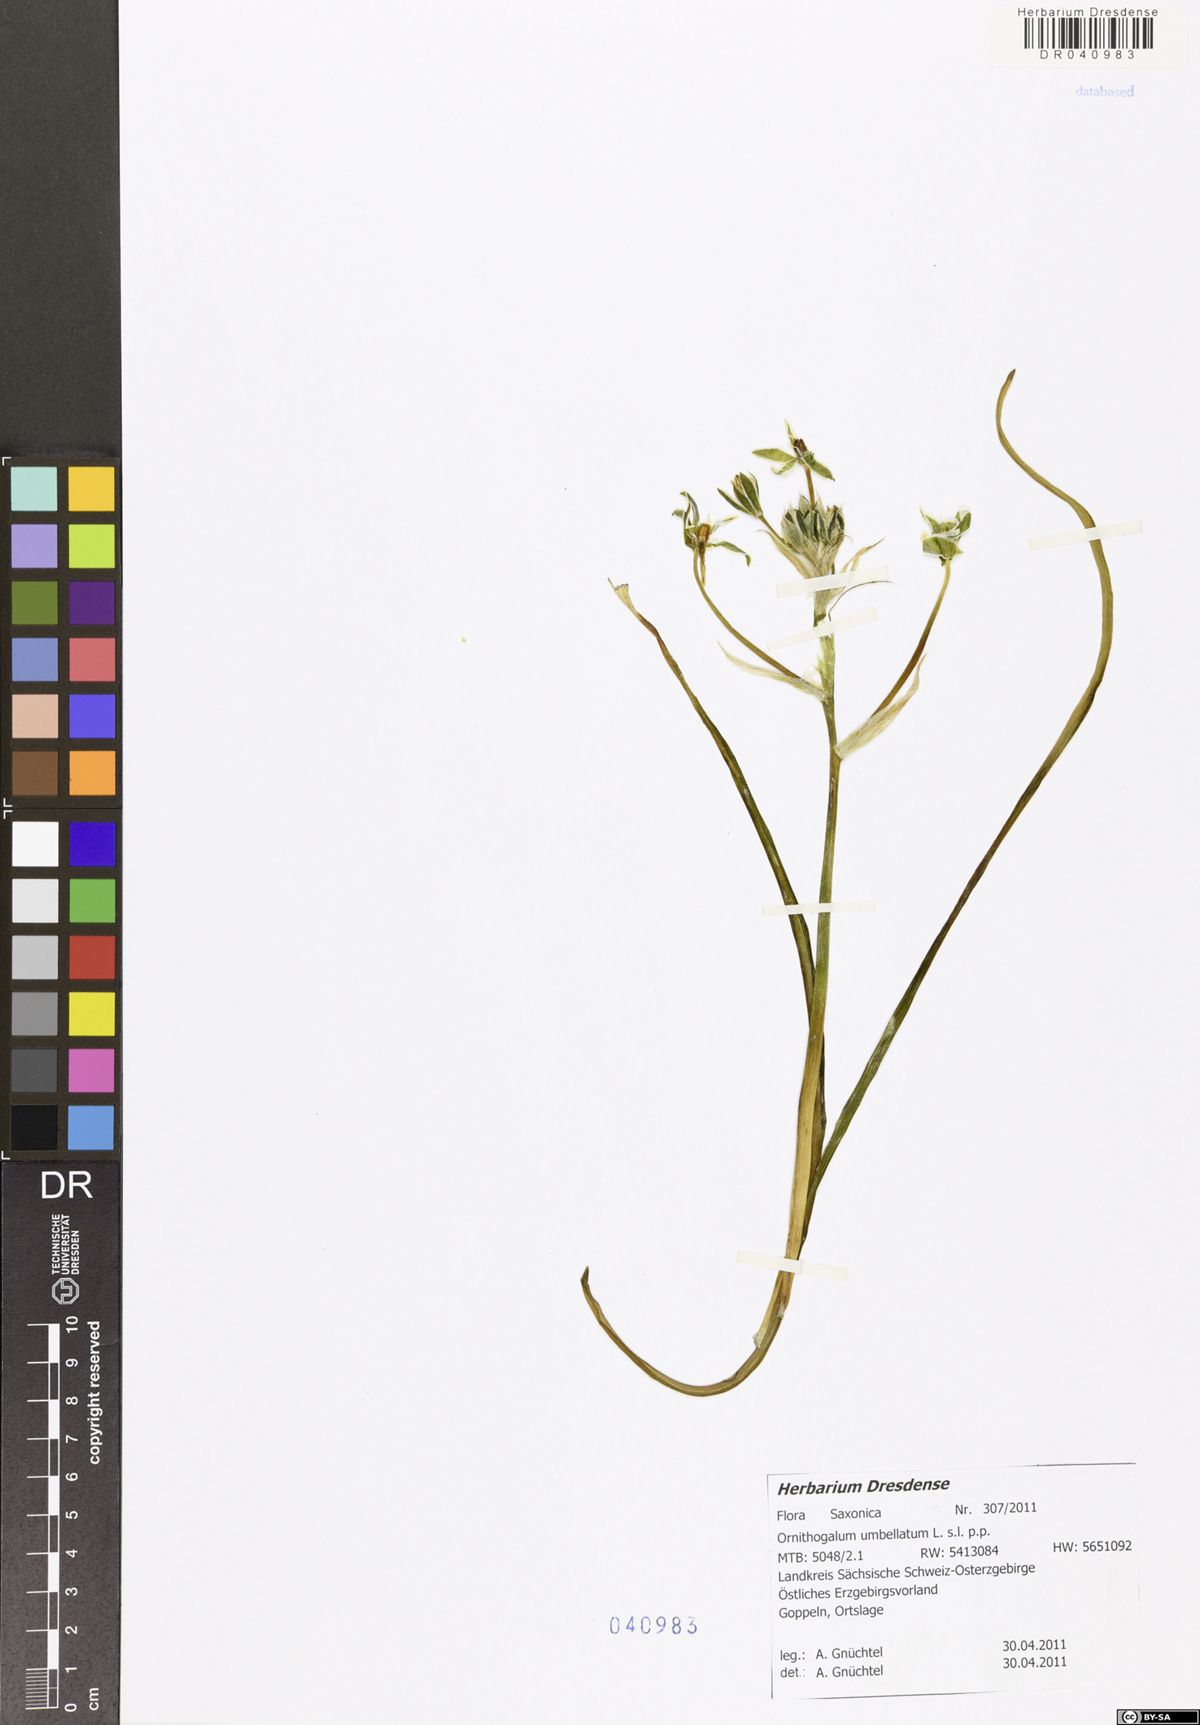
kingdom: Plantae
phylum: Tracheophyta
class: Liliopsida
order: Asparagales
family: Asparagaceae
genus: Ornithogalum
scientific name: Ornithogalum umbellatum
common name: Garden star-of-bethlehem
